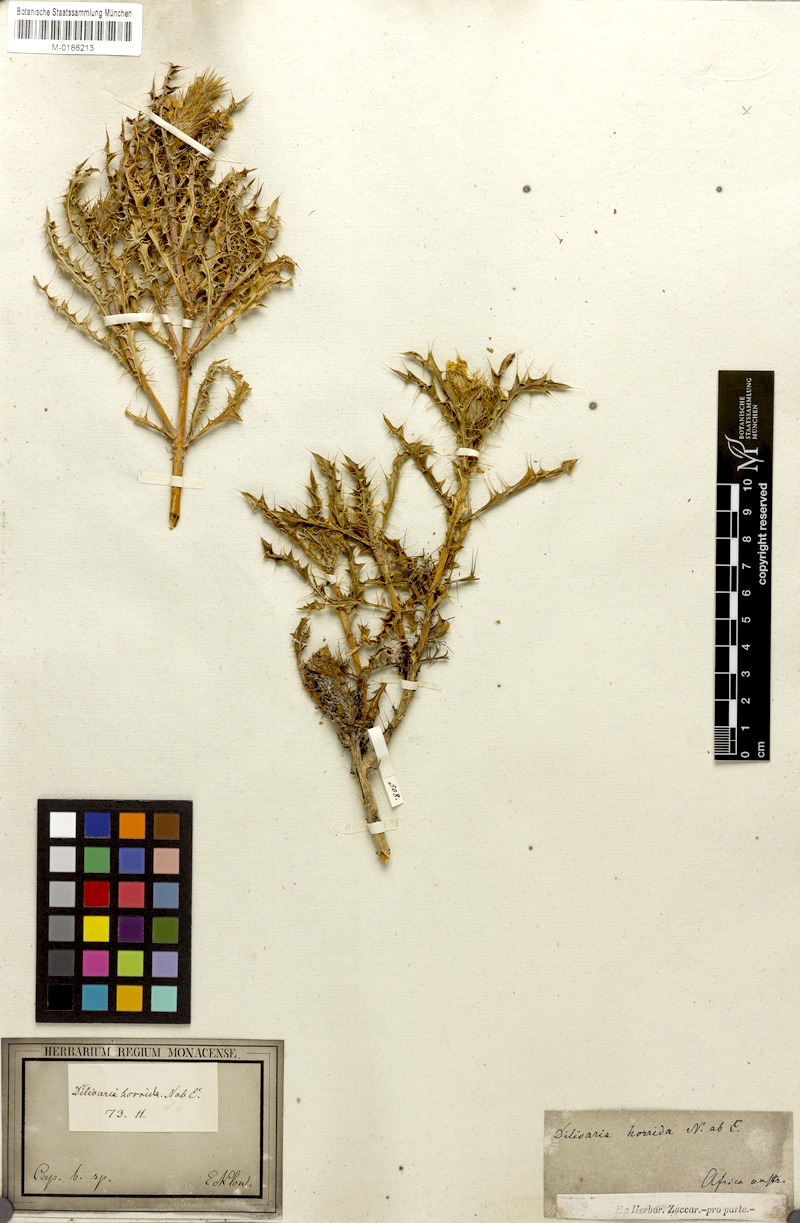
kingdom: Plantae
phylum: Tracheophyta
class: Magnoliopsida
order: Lamiales
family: Acanthaceae
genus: Acanthopsis
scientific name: Acanthopsis horrida
